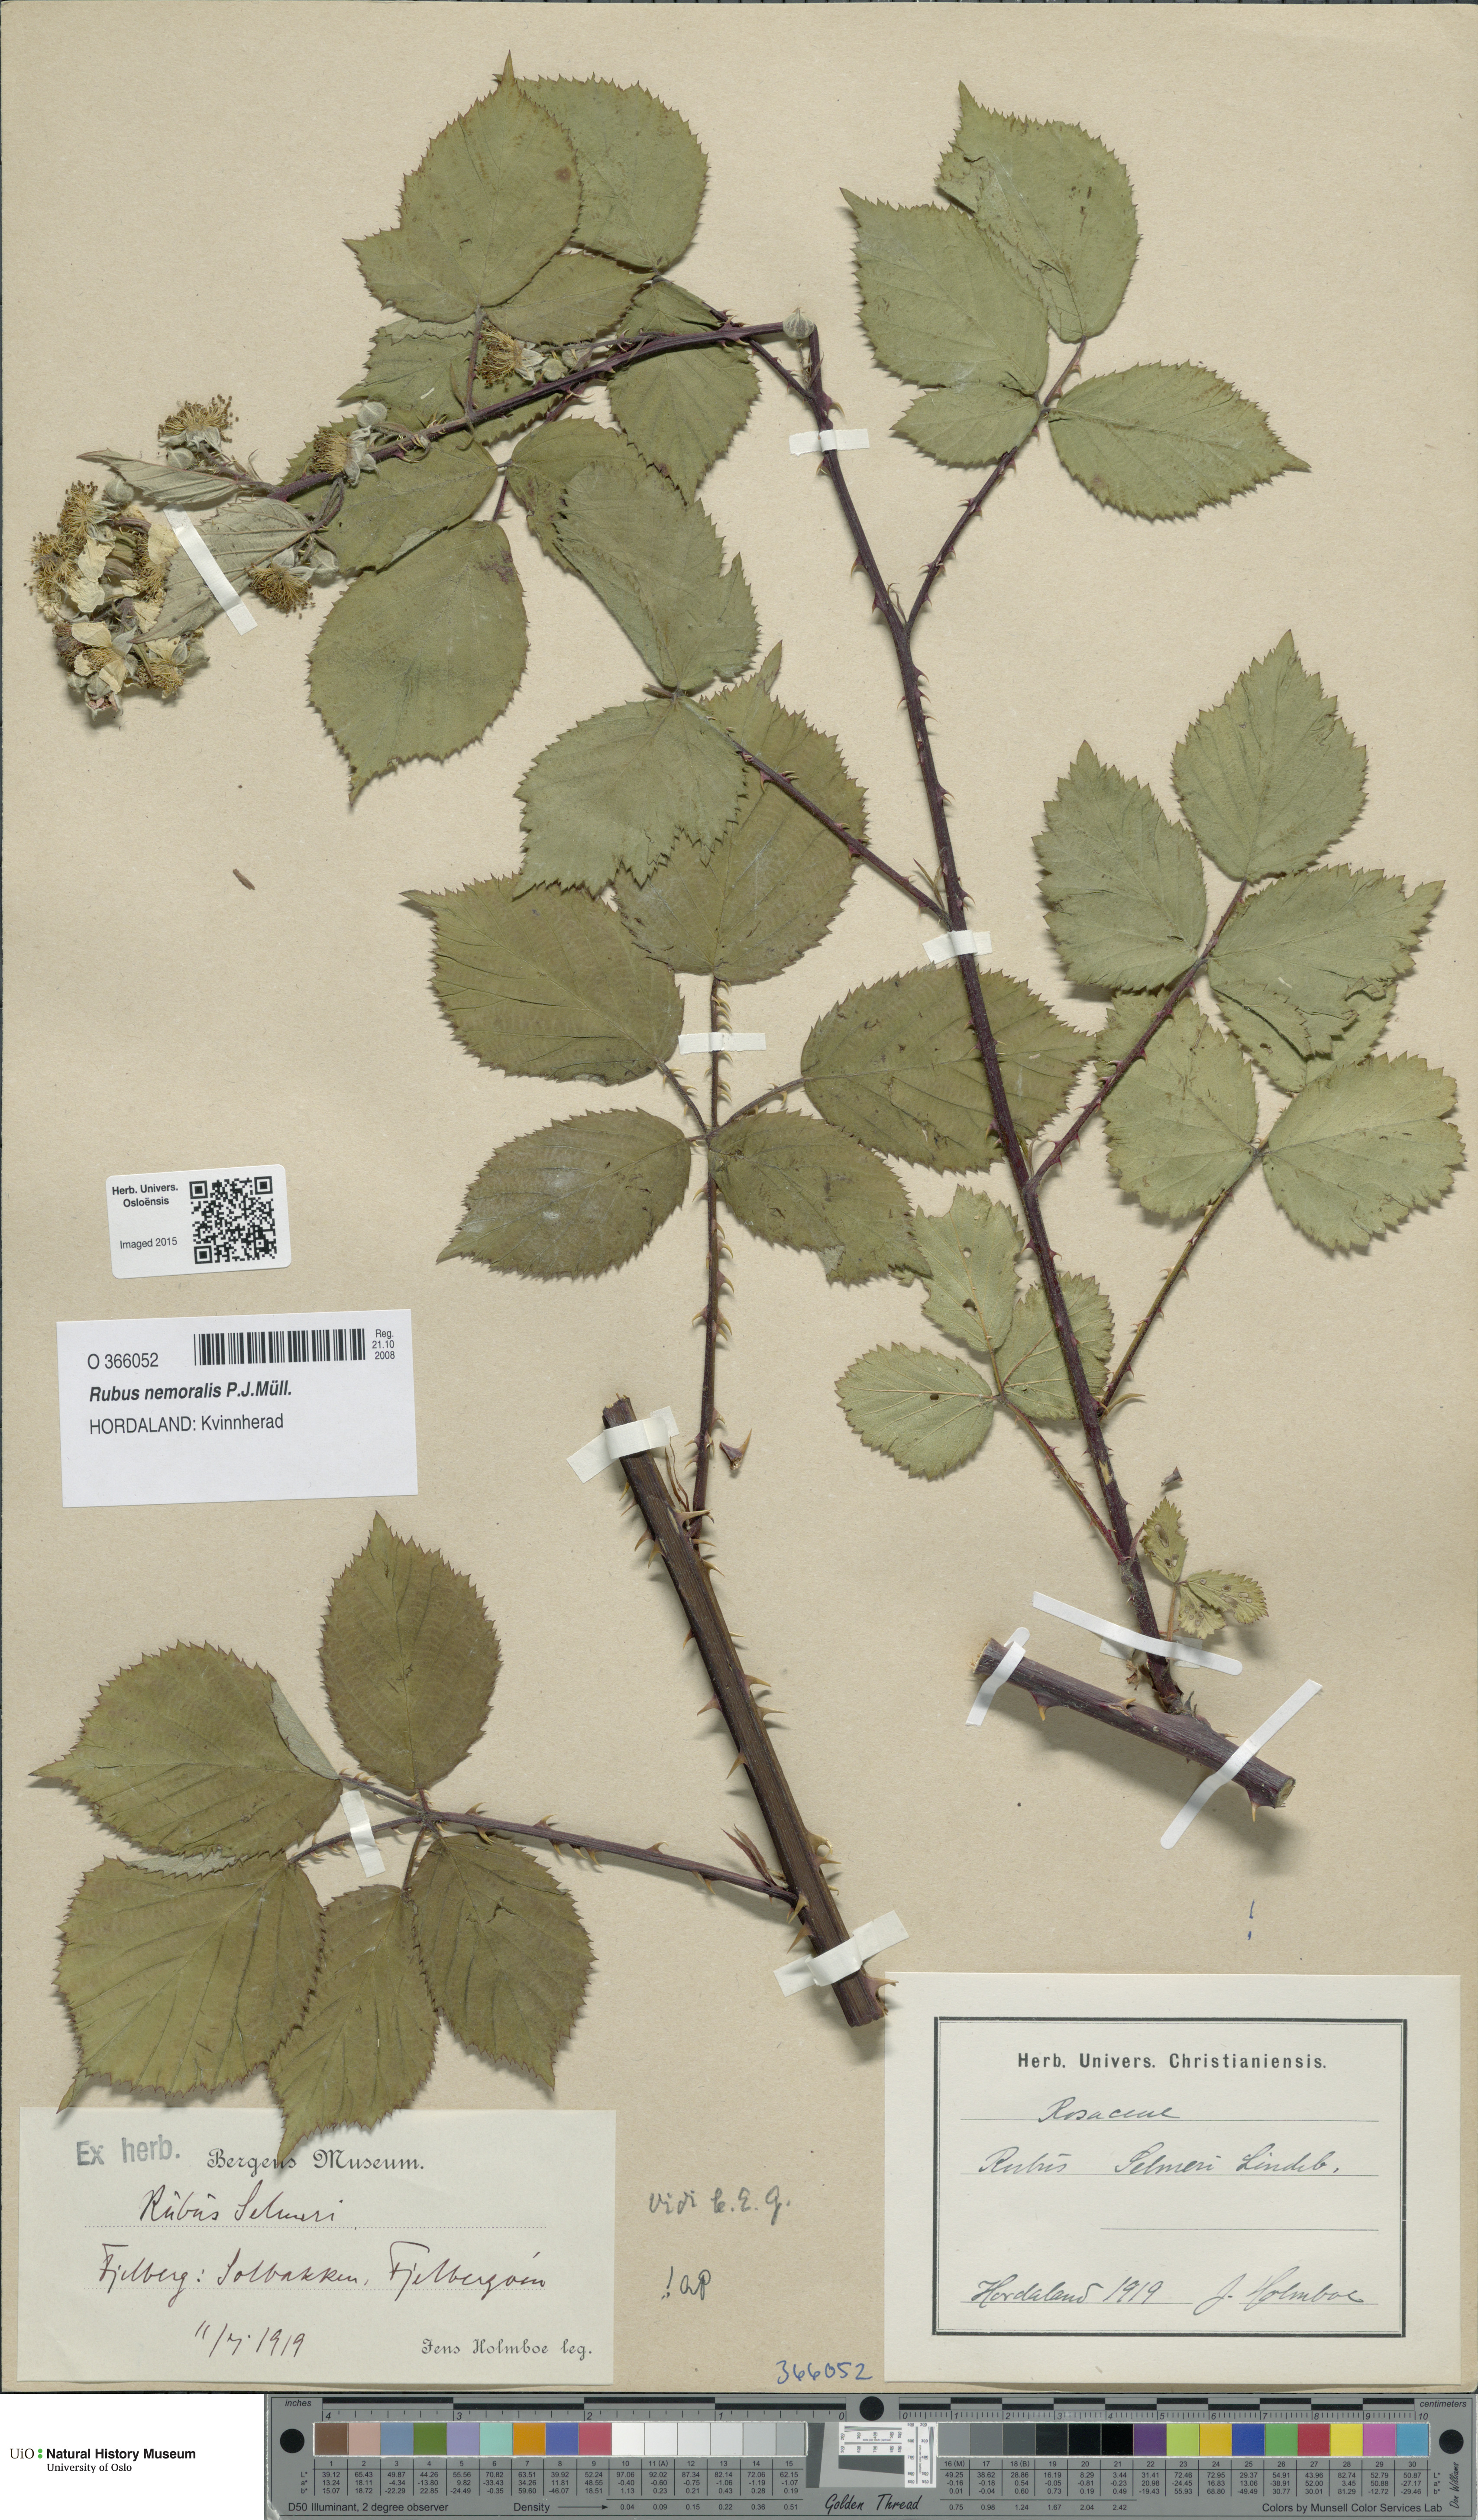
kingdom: Plantae
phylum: Tracheophyta
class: Magnoliopsida
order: Rosales
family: Rosaceae
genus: Rubus
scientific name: Rubus nemoralis
